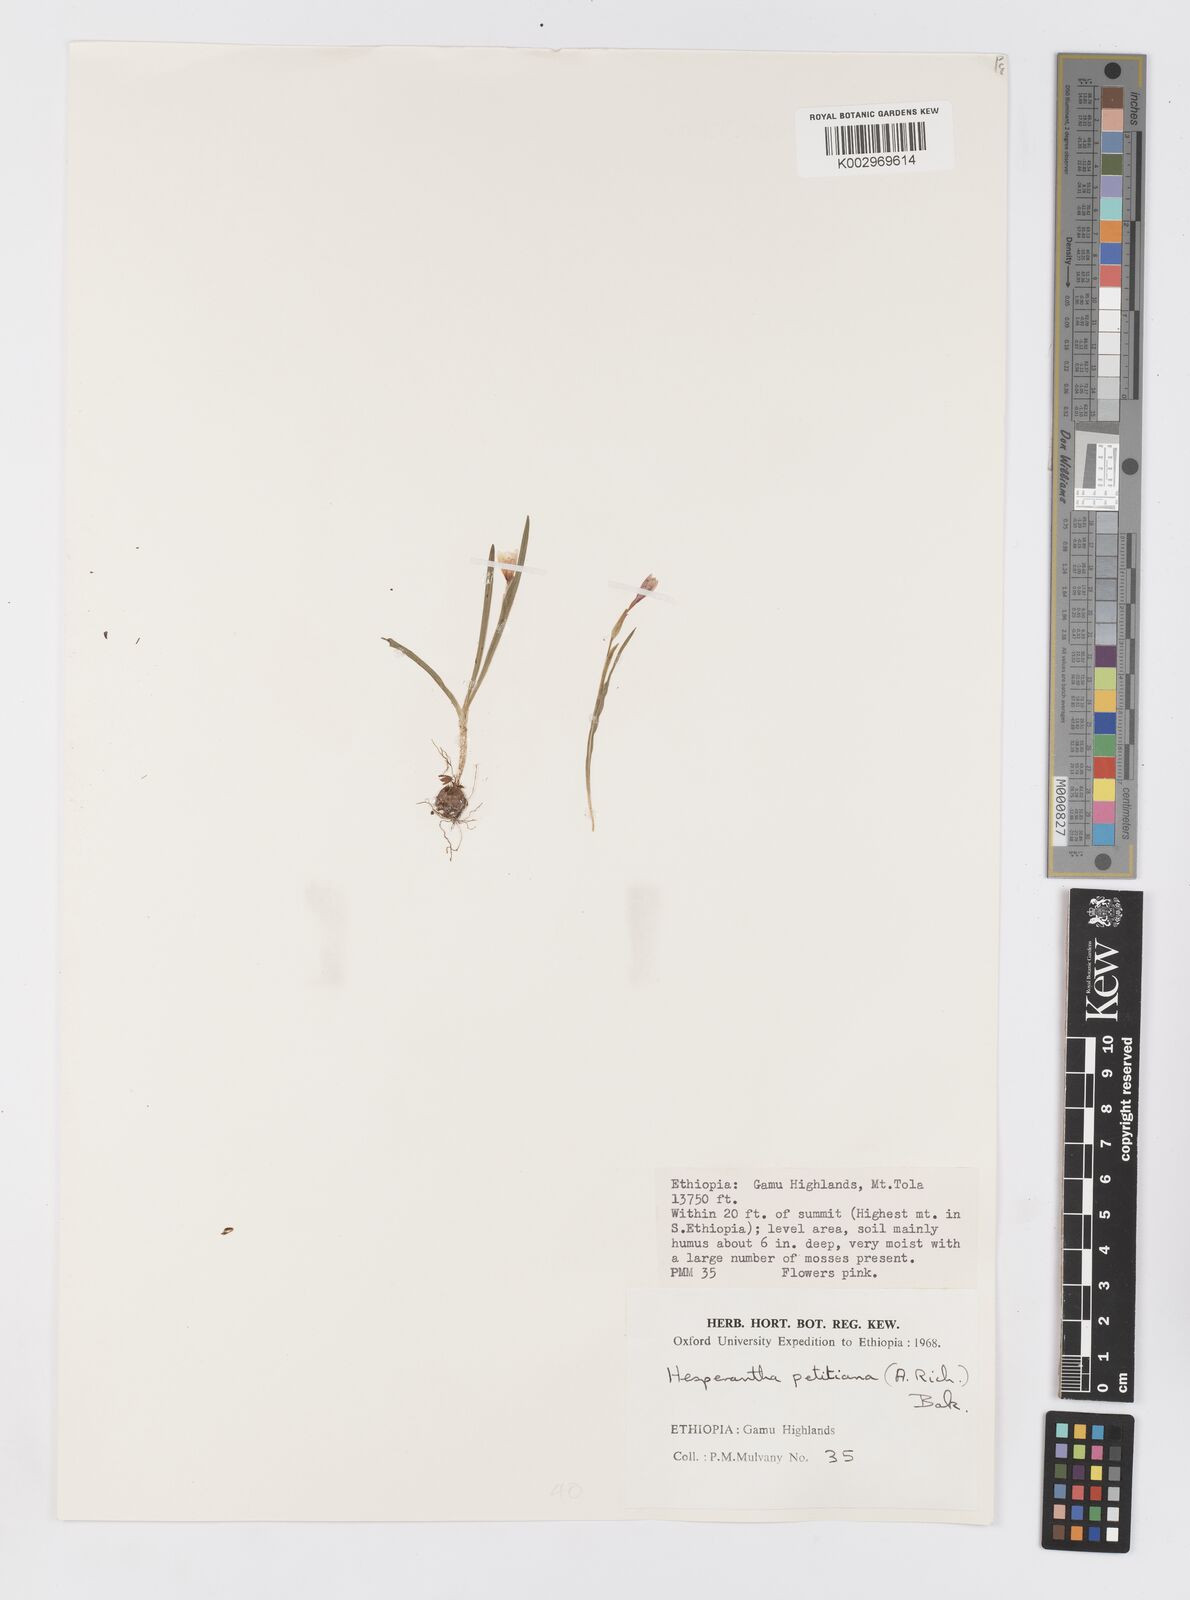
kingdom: Plantae
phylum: Tracheophyta
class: Liliopsida
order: Asparagales
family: Iridaceae
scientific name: Iridaceae
